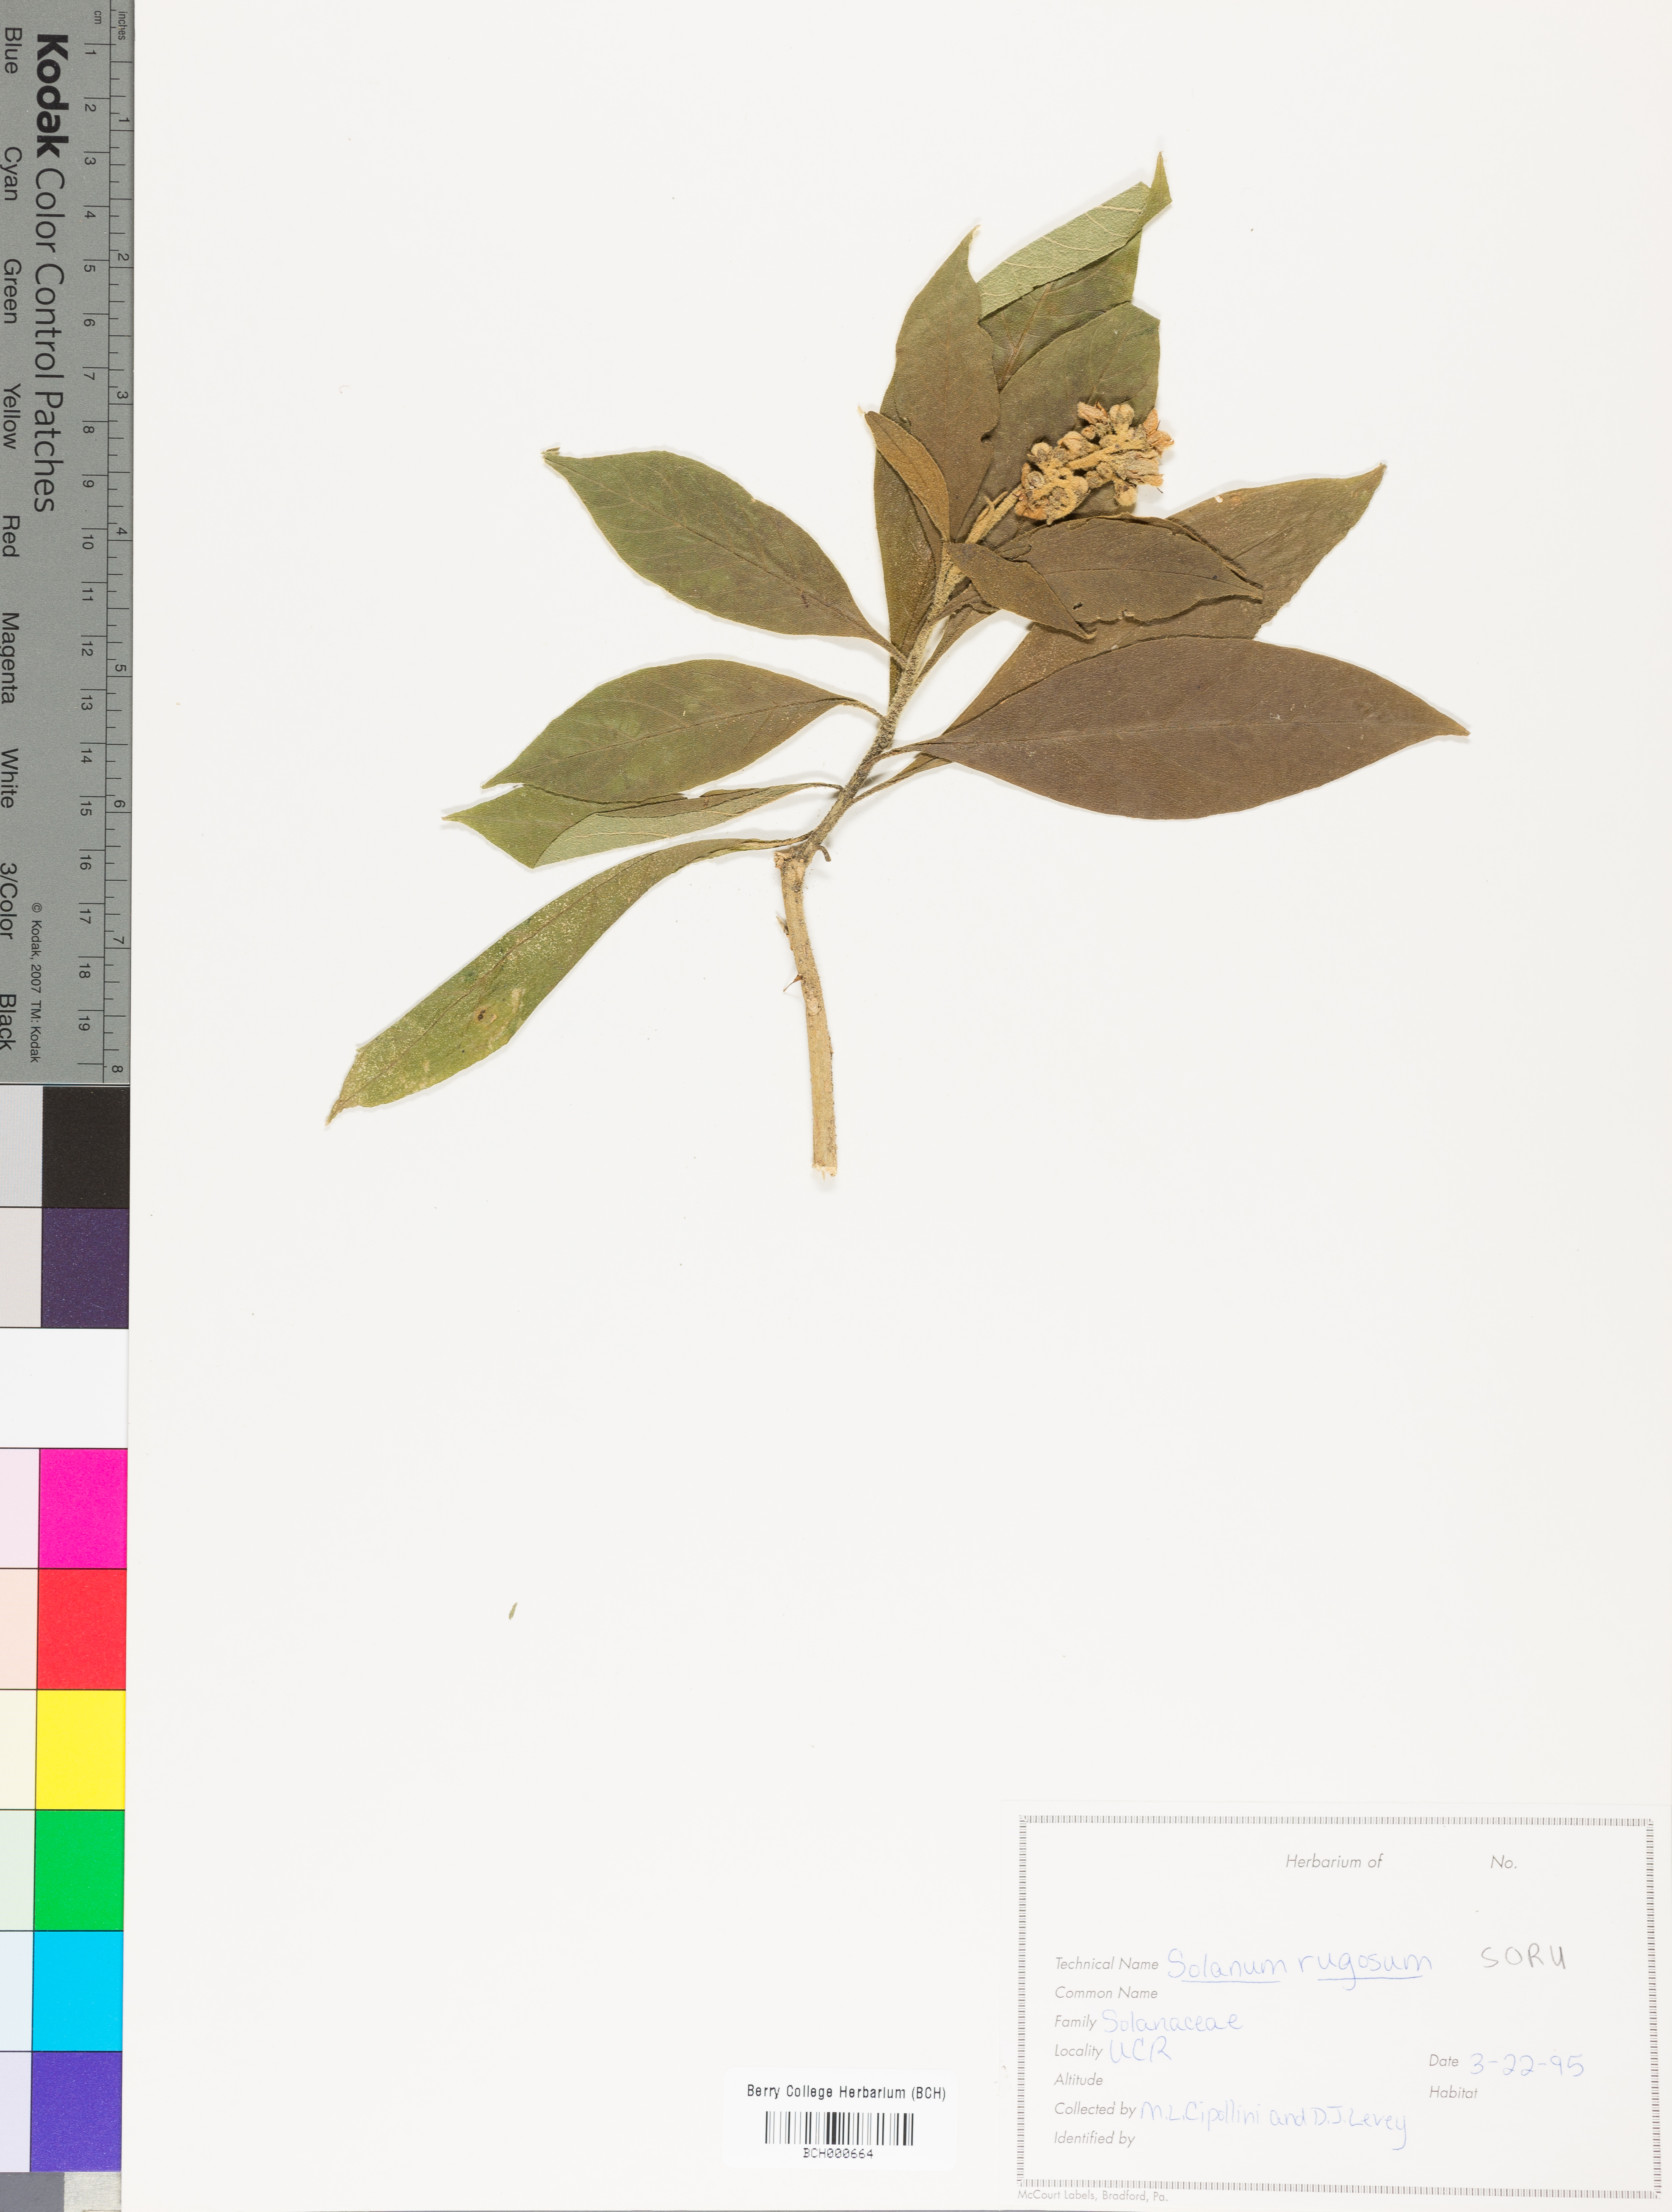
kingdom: Plantae
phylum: Tracheophyta
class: Magnoliopsida
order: Solanales
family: Solanaceae
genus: Solanum
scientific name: Solanum rugosum
